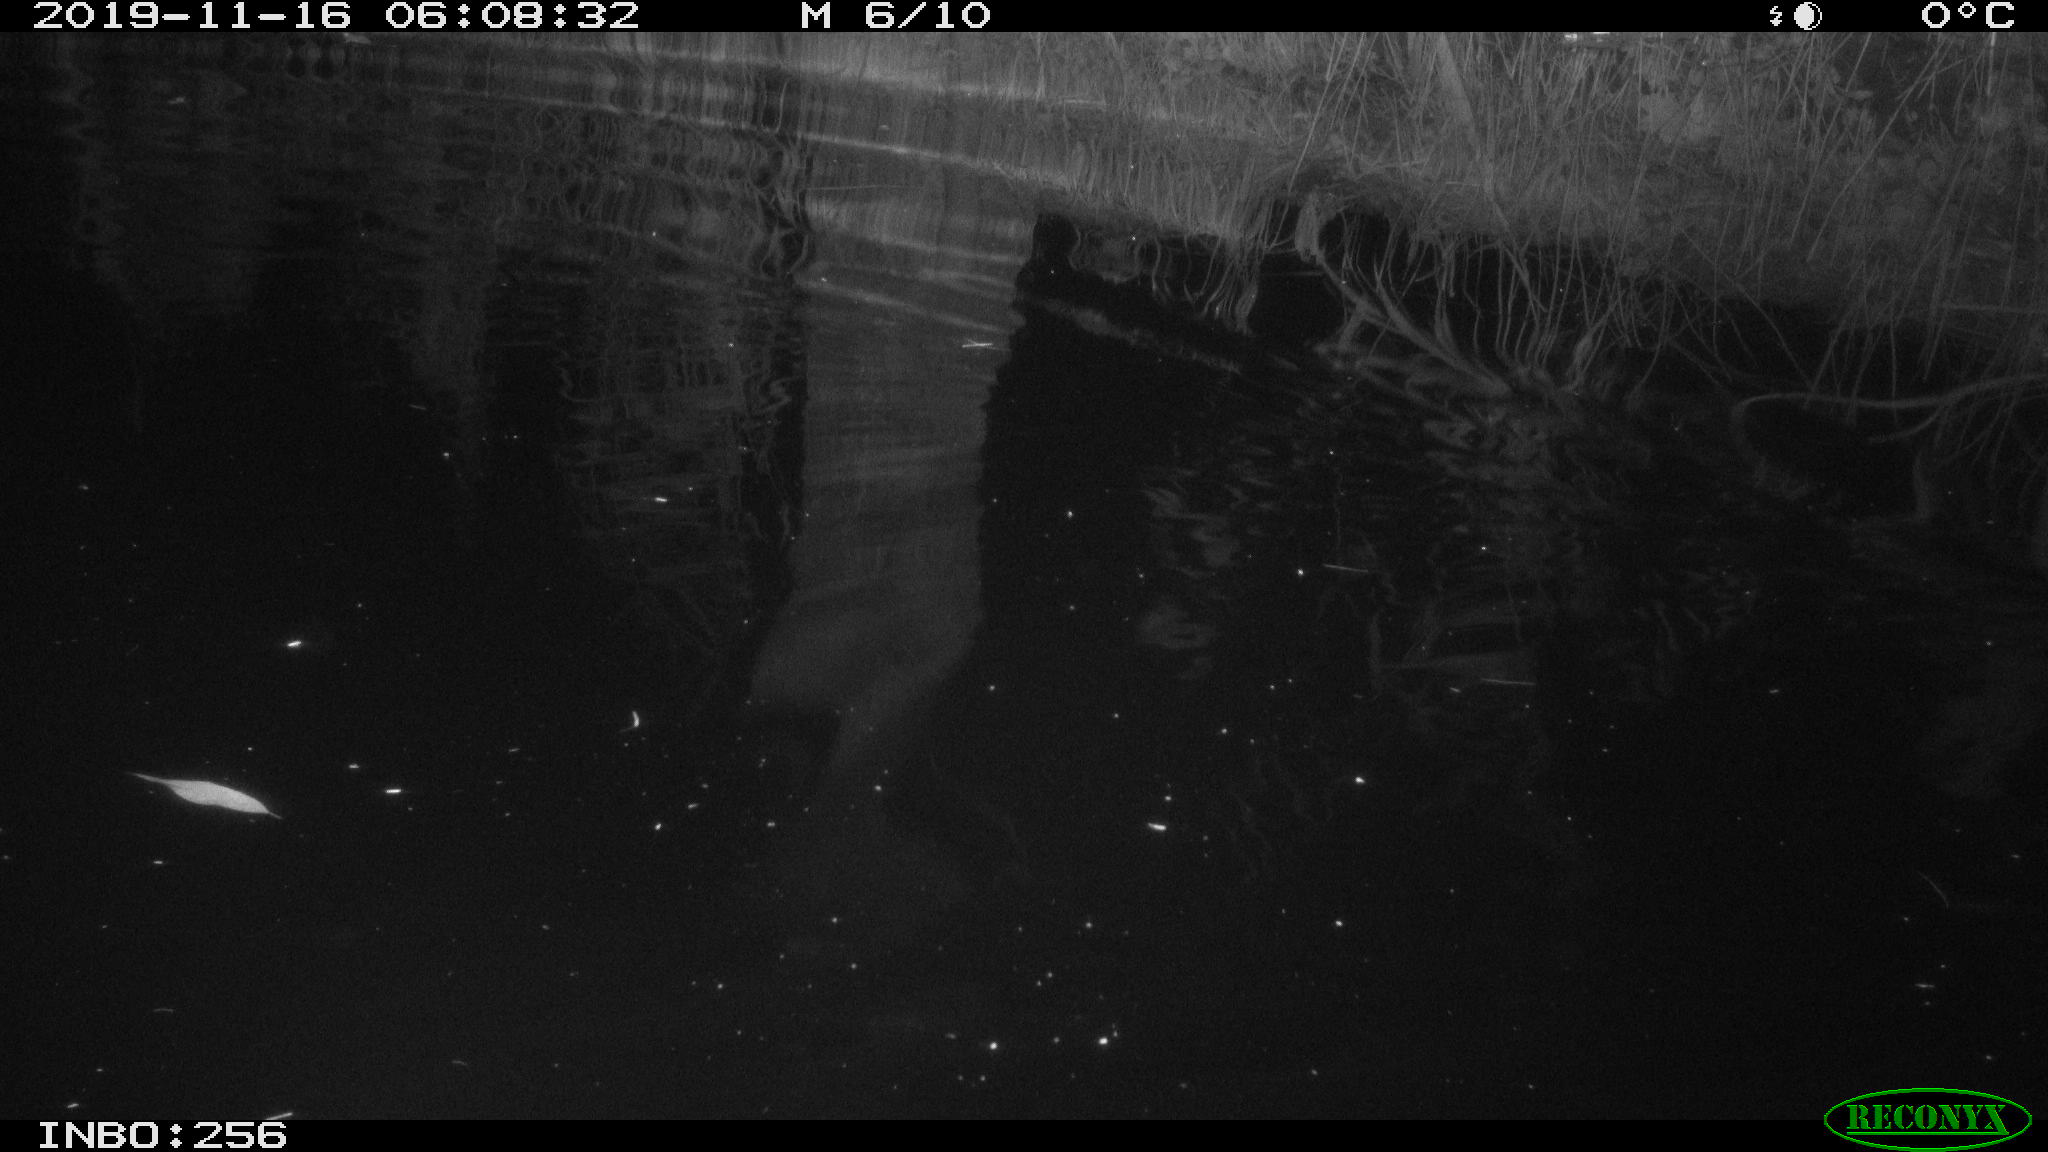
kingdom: Animalia
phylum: Chordata
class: Mammalia
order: Rodentia
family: Muridae
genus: Rattus
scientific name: Rattus norvegicus
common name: Brown rat
